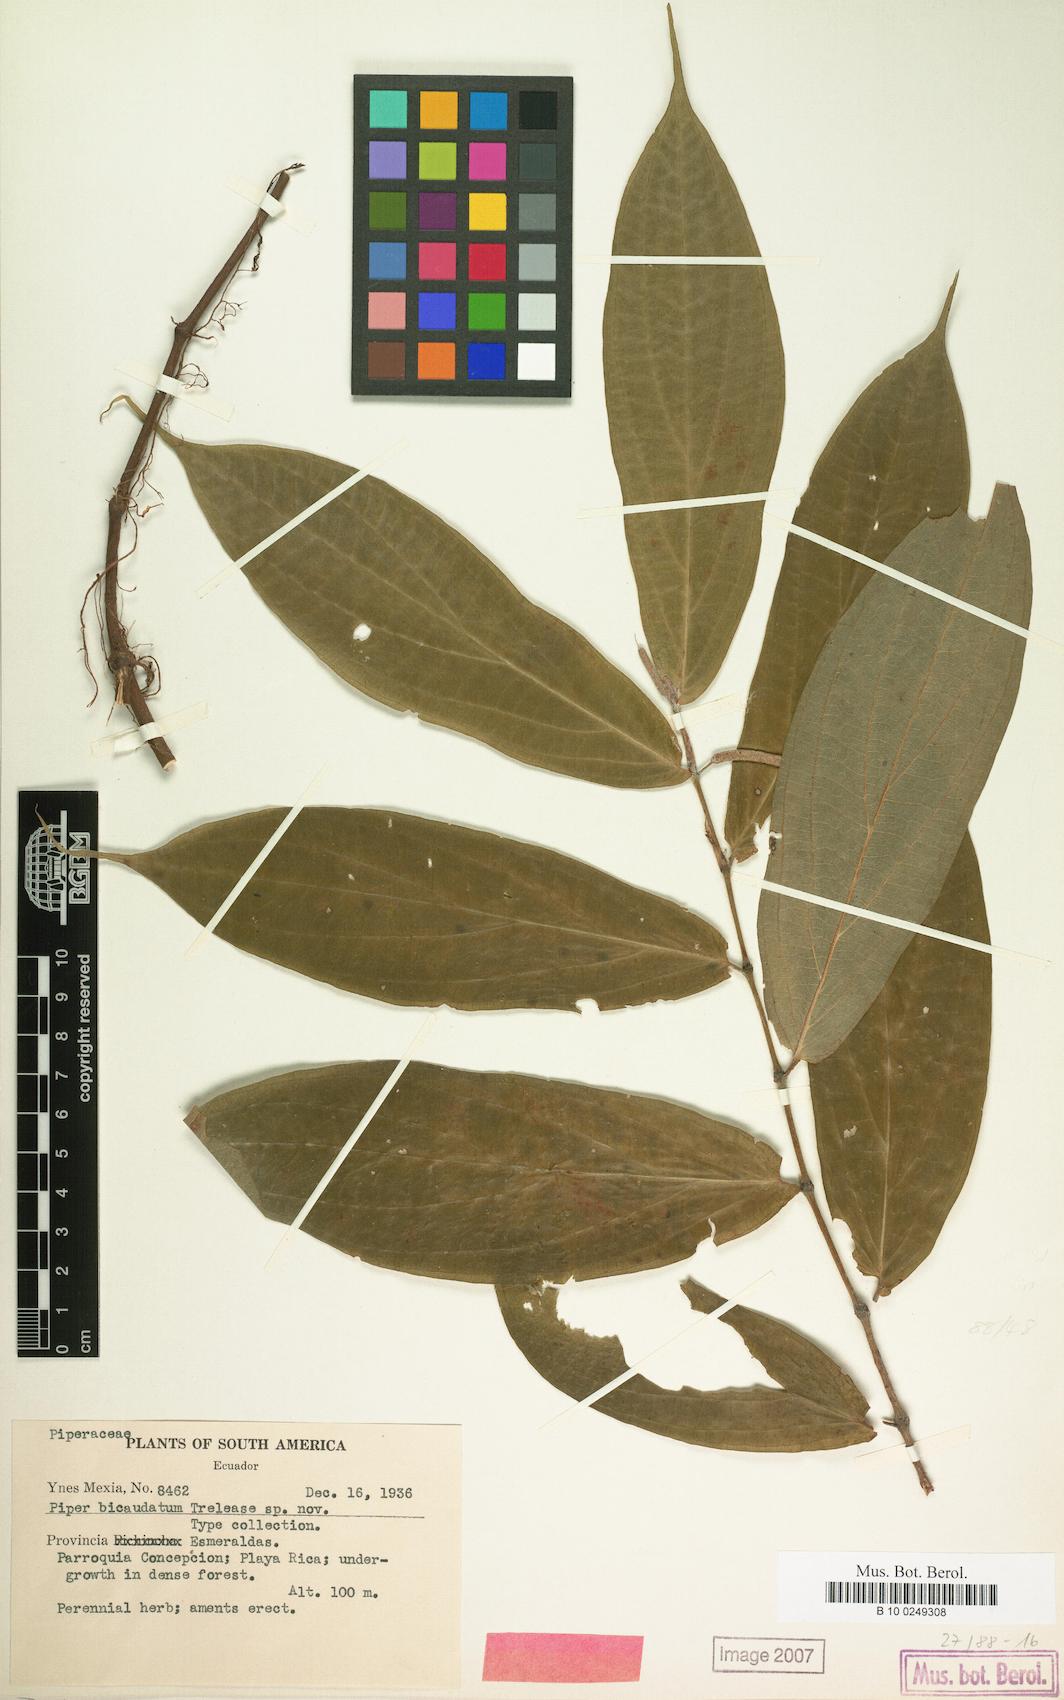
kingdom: Plantae
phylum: Tracheophyta
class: Magnoliopsida
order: Piperales
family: Piperaceae
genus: Piper
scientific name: Piper
